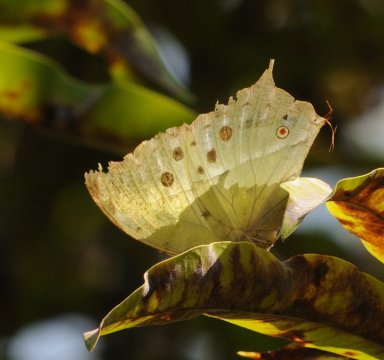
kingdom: Animalia
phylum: Arthropoda
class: Insecta
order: Lepidoptera
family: Nymphalidae
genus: Salamis
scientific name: Salamis Protogoniomorpha parhassus
